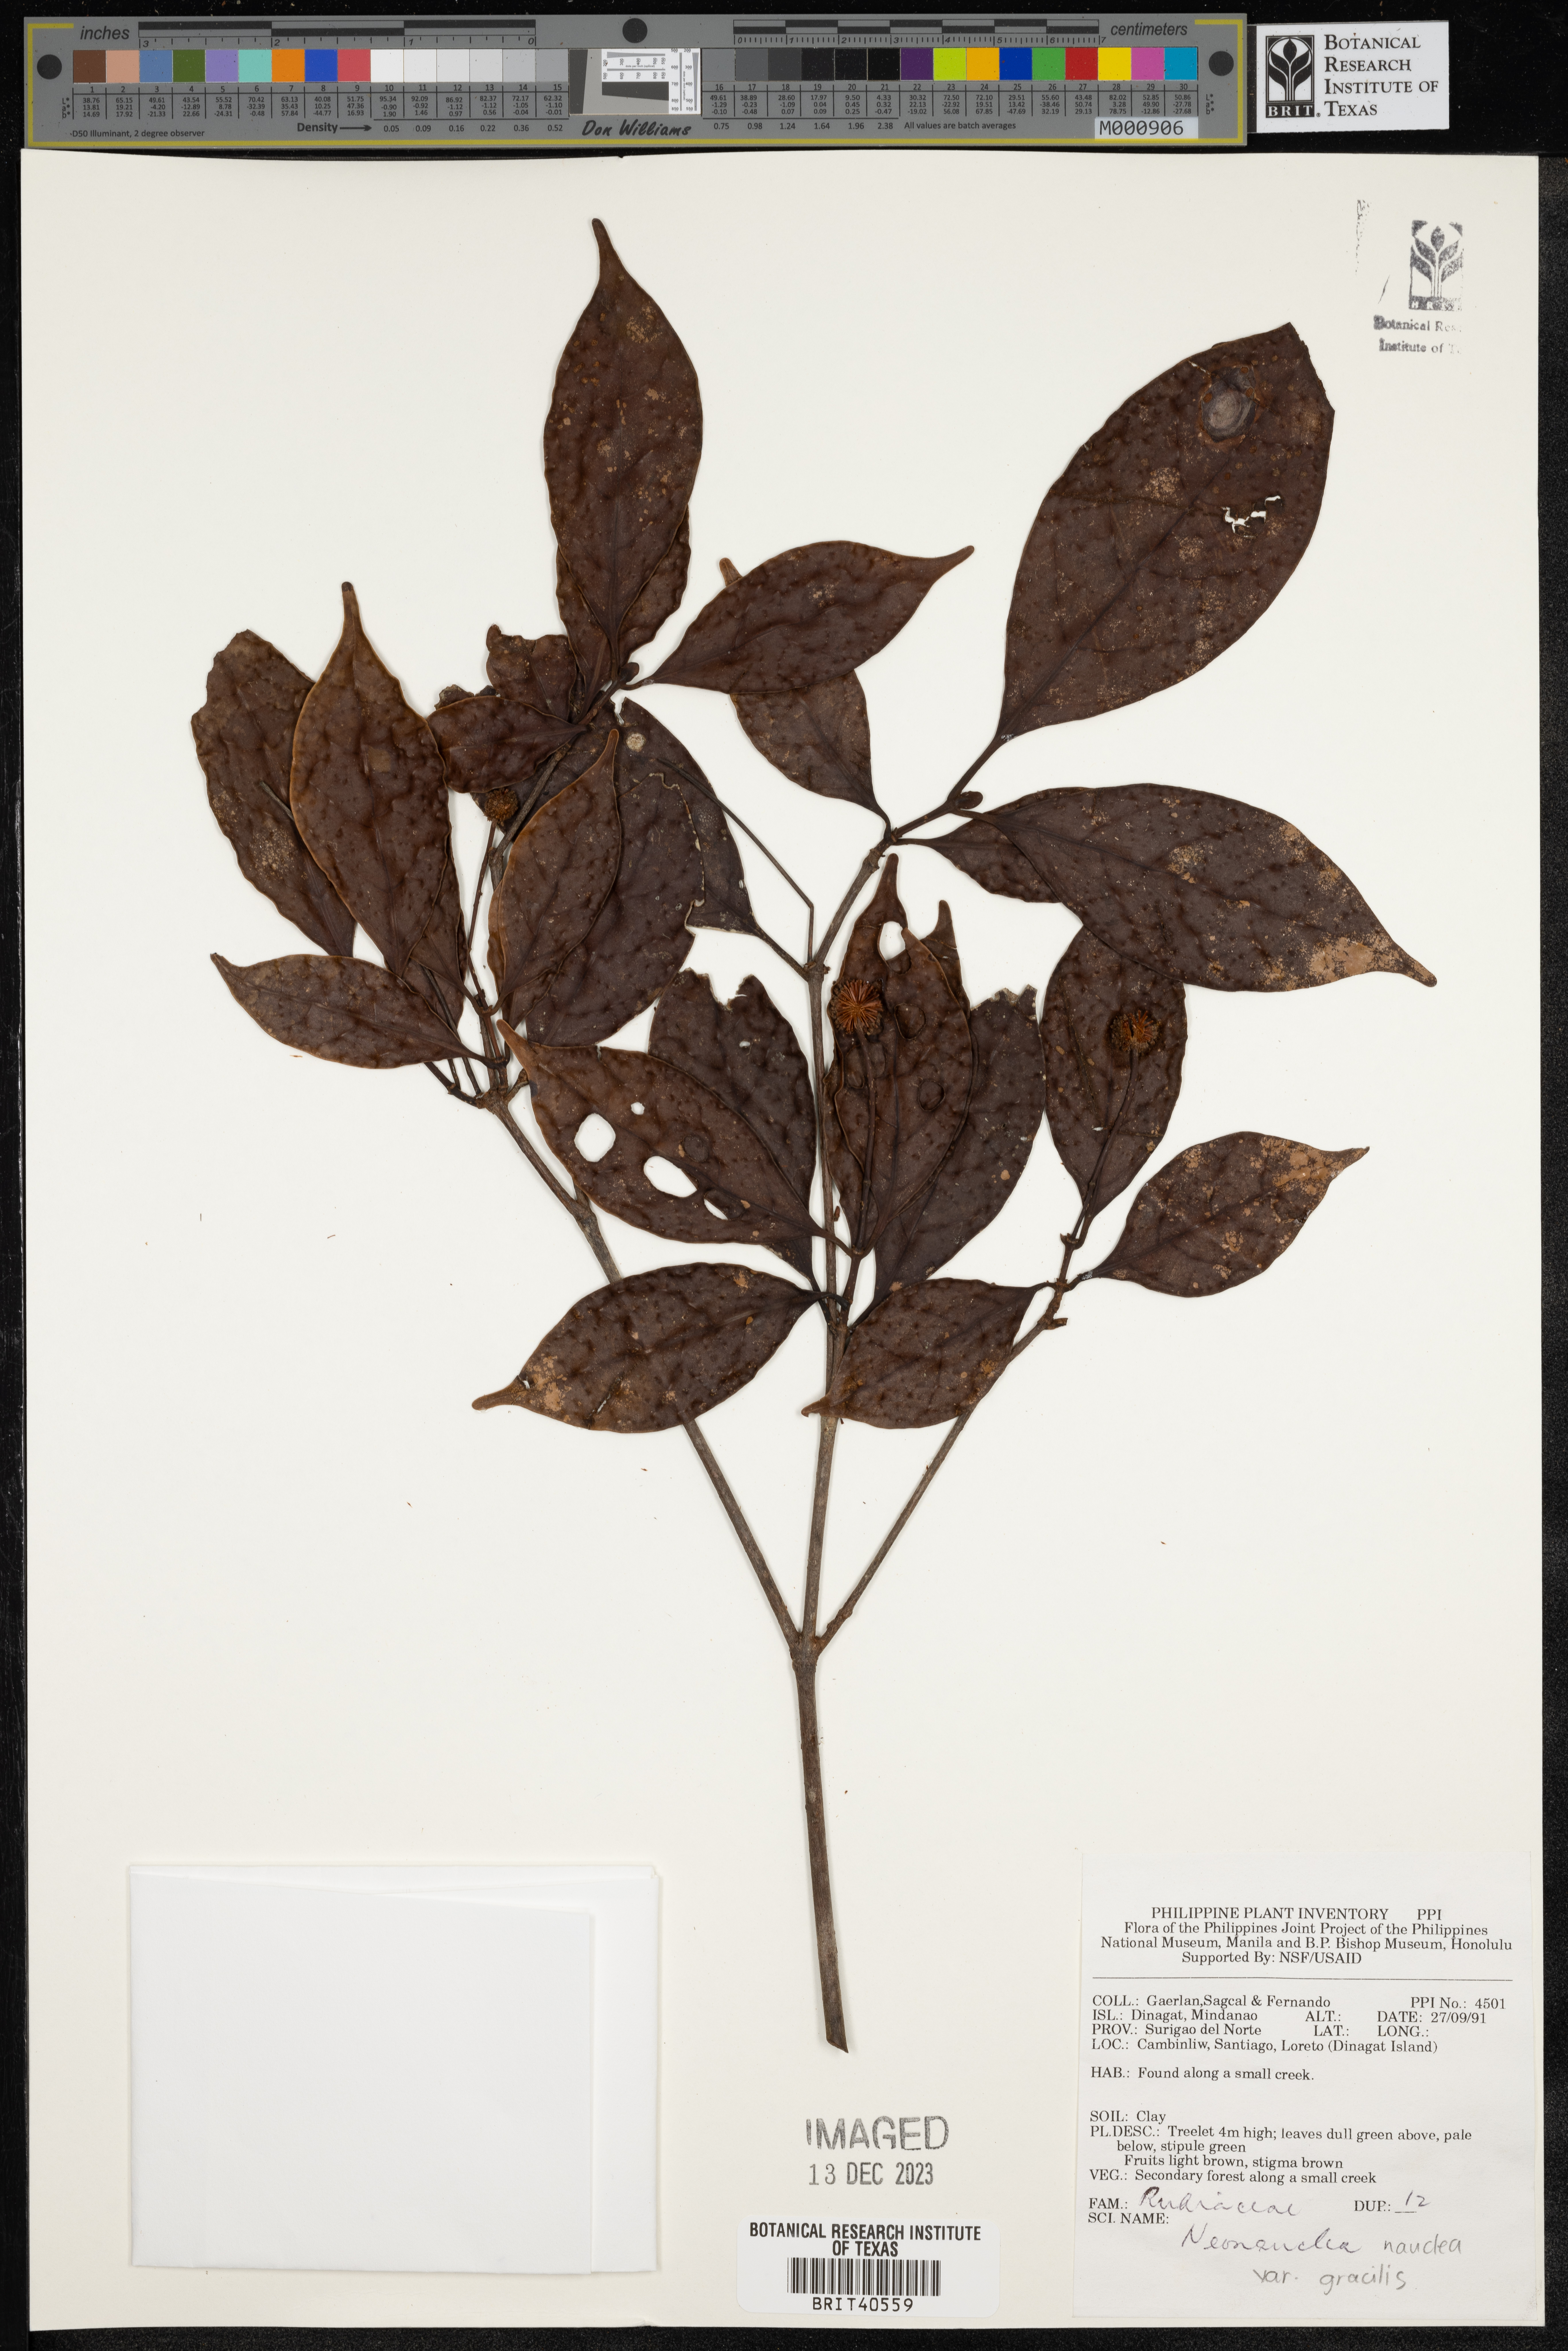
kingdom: Plantae
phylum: Tracheophyta
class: Magnoliopsida
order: Gentianales
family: Rubiaceae
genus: Neonauclea
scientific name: Neonauclea
